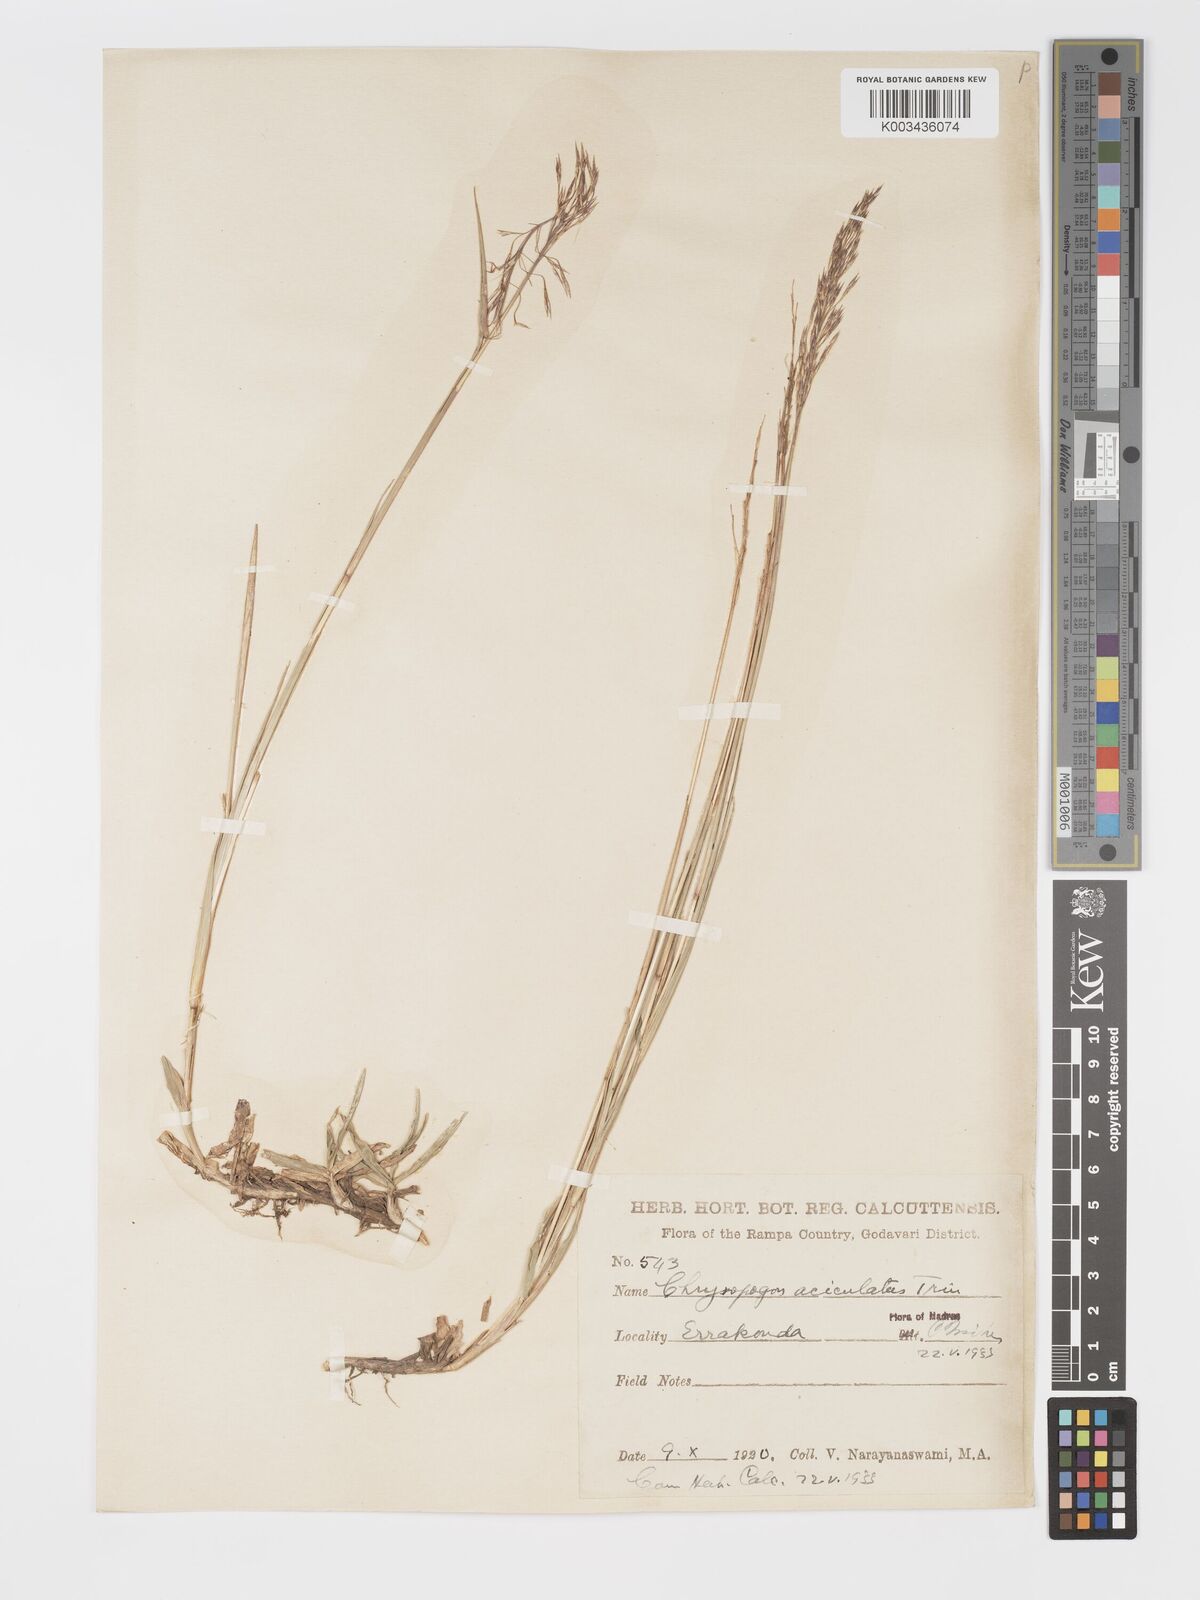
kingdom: Plantae
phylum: Tracheophyta
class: Liliopsida
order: Poales
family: Poaceae
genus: Chrysopogon
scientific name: Chrysopogon aciculatus
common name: Pilipiliula
